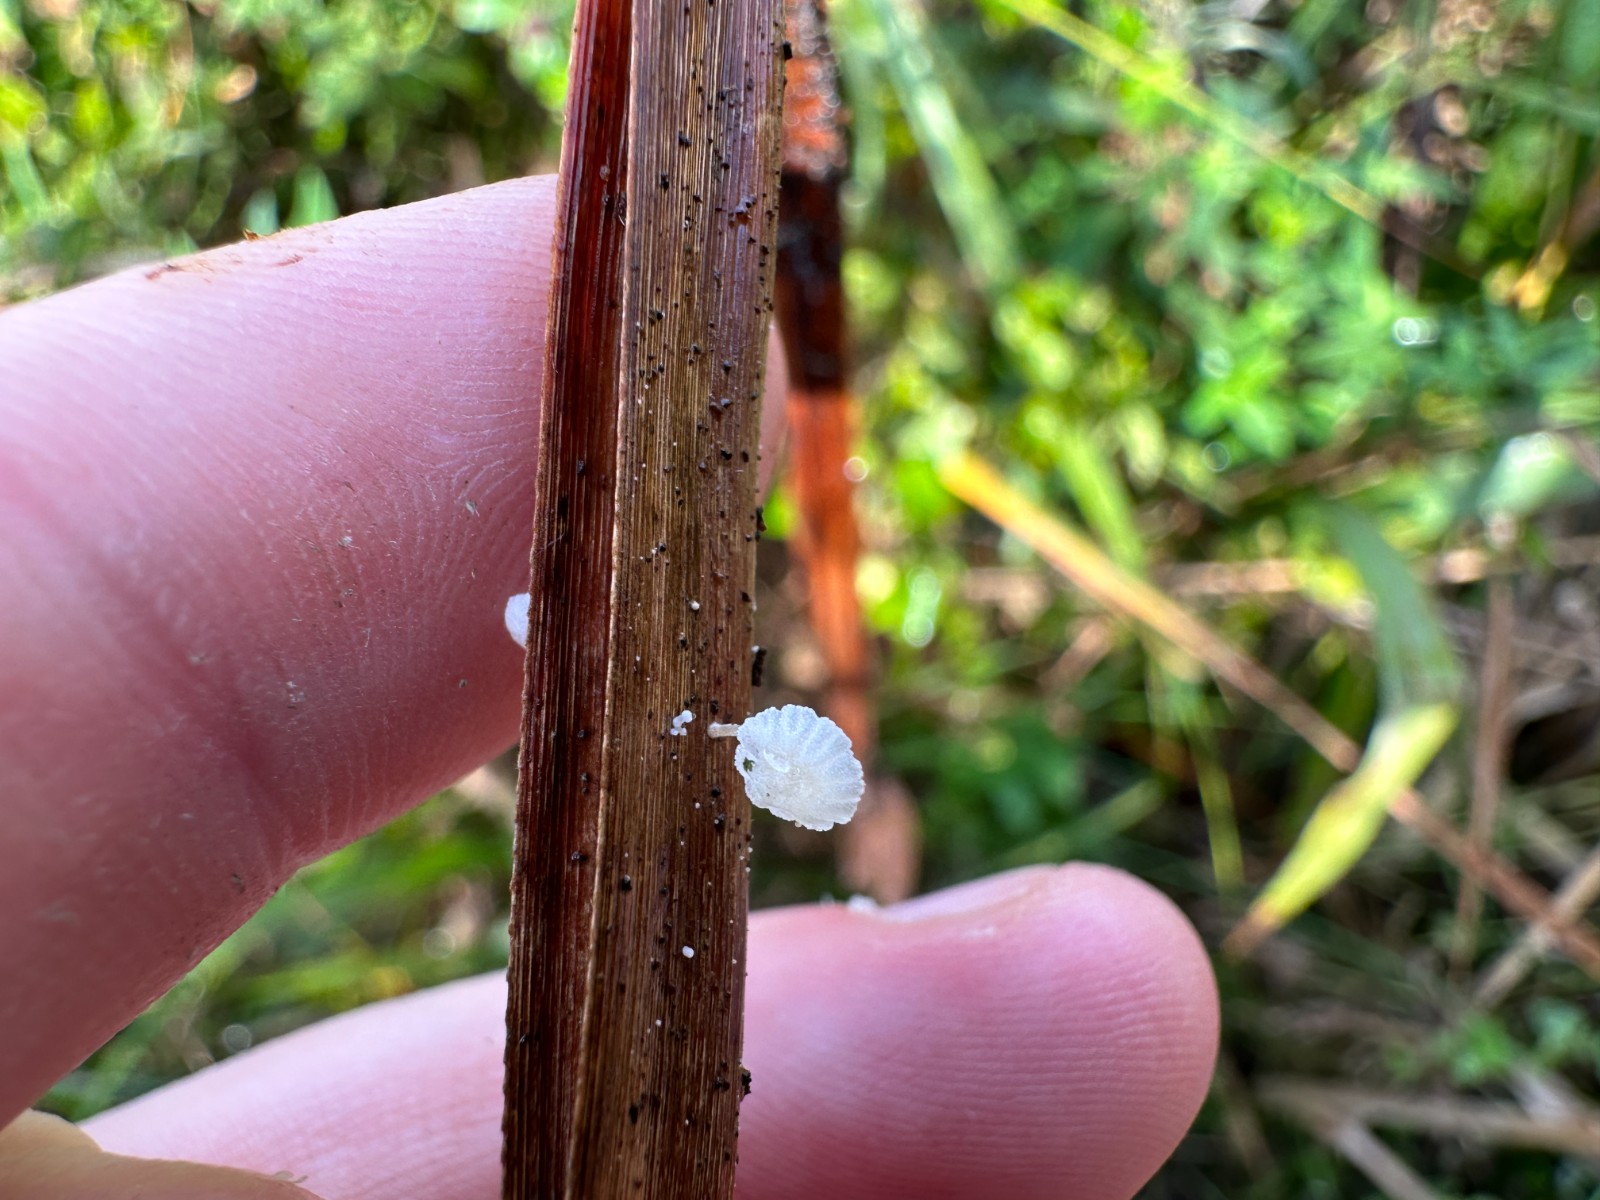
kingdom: Fungi
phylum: Basidiomycota
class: Agaricomycetes
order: Agaricales
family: Mycenaceae
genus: Resinomycena
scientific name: Resinomycena saccharifera
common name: sukkerhat
